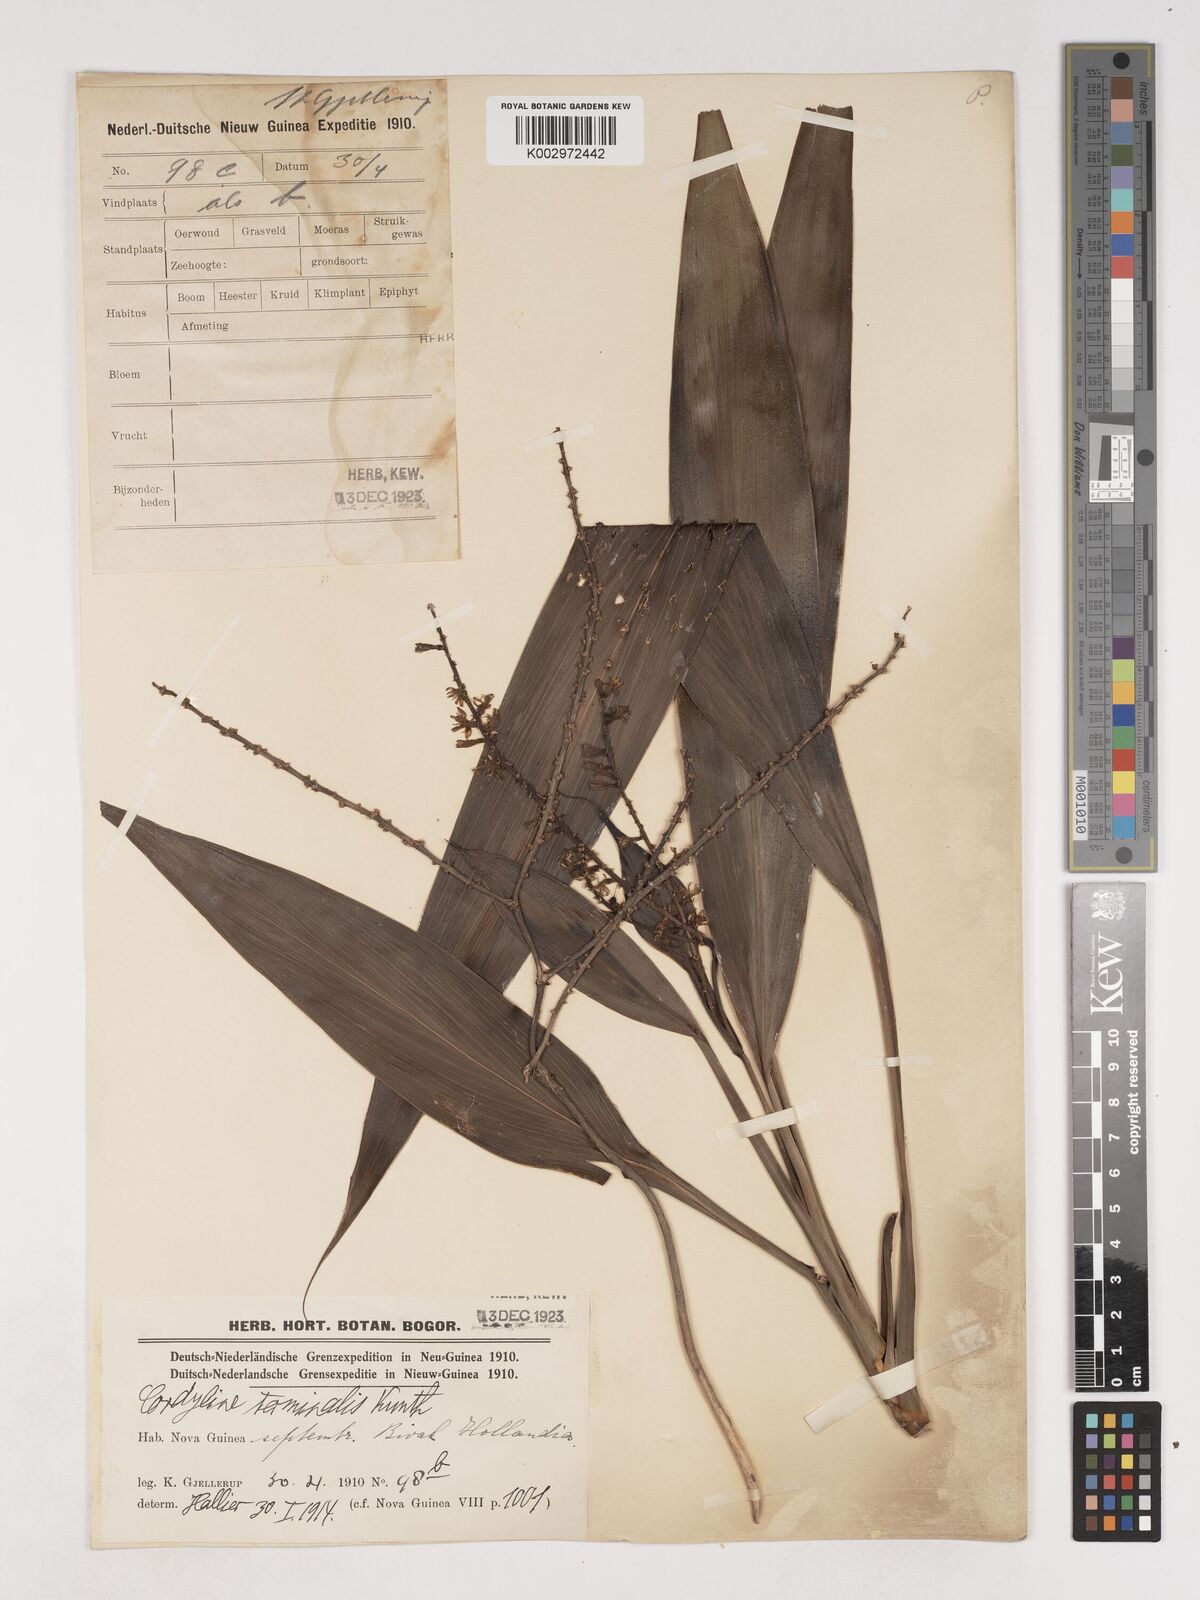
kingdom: Plantae
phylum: Tracheophyta
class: Liliopsida
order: Asparagales
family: Asparagaceae
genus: Cordyline
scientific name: Cordyline fruticosa
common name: Good-luck-plant
